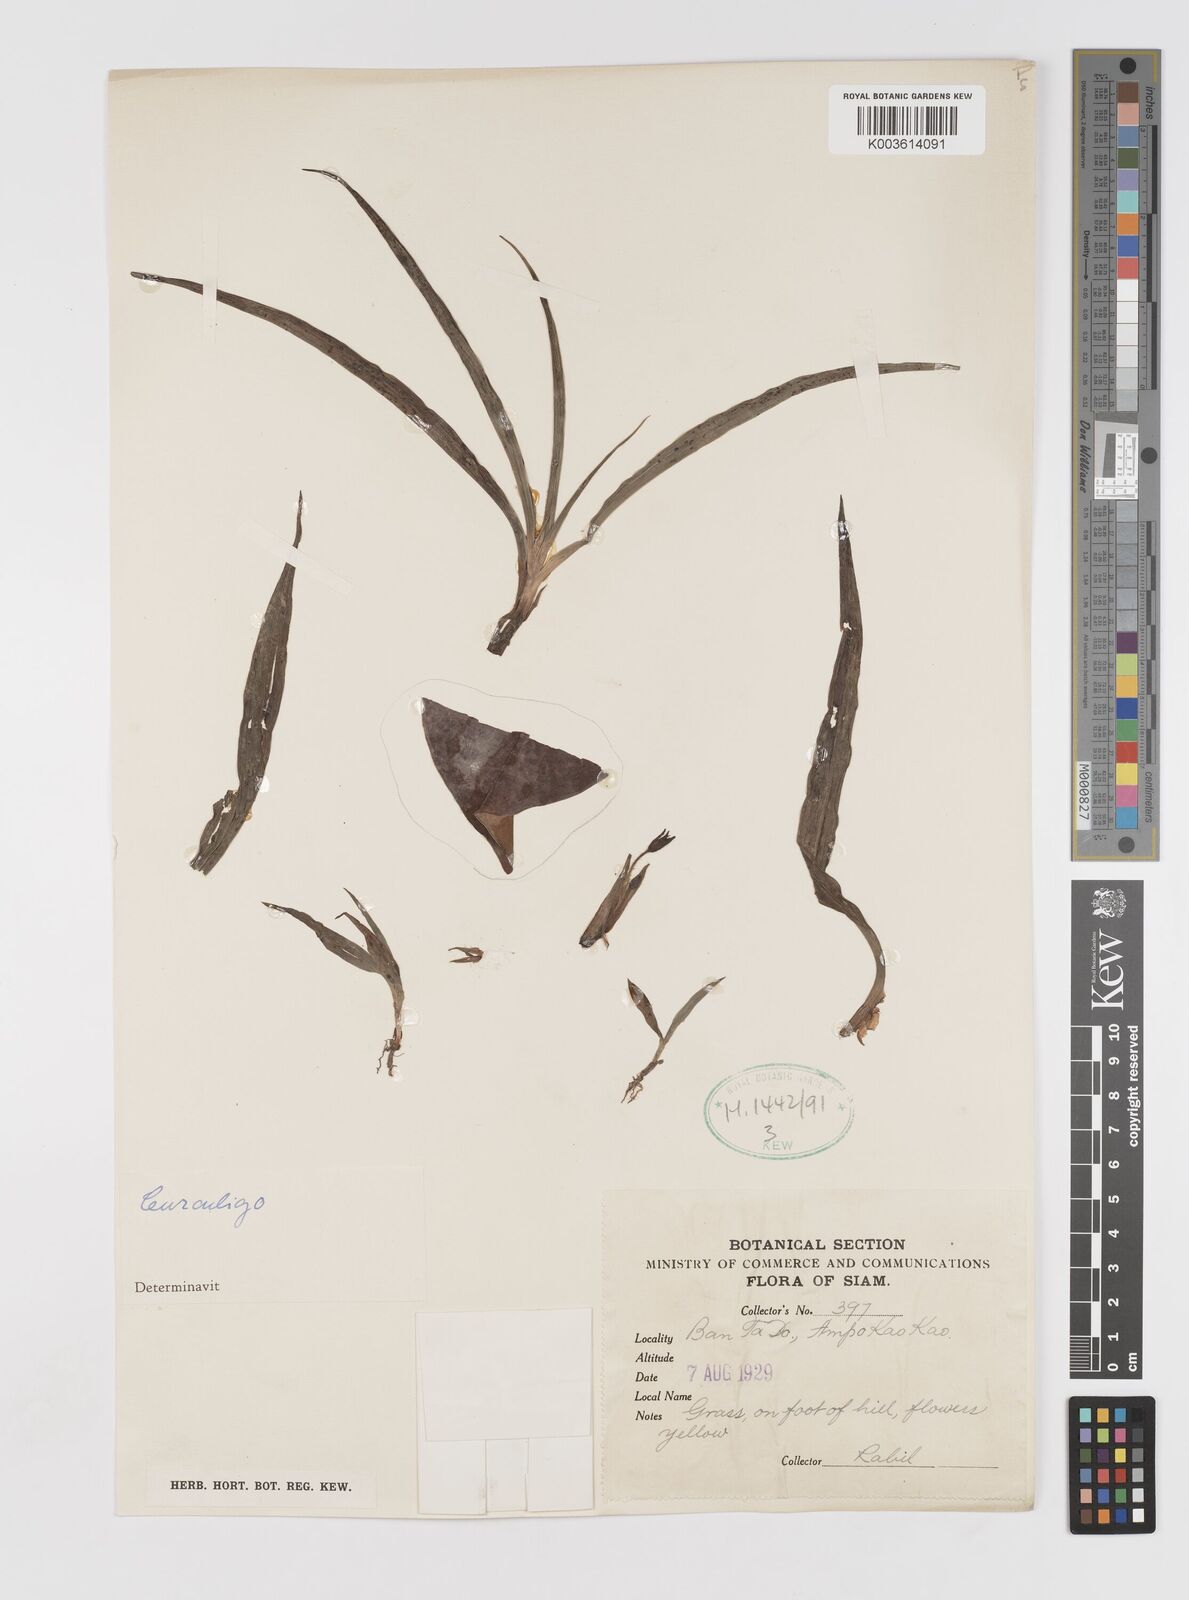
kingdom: Plantae
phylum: Tracheophyta
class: Liliopsida
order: Asparagales
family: Hypoxidaceae
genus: Curculigo
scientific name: Curculigo
